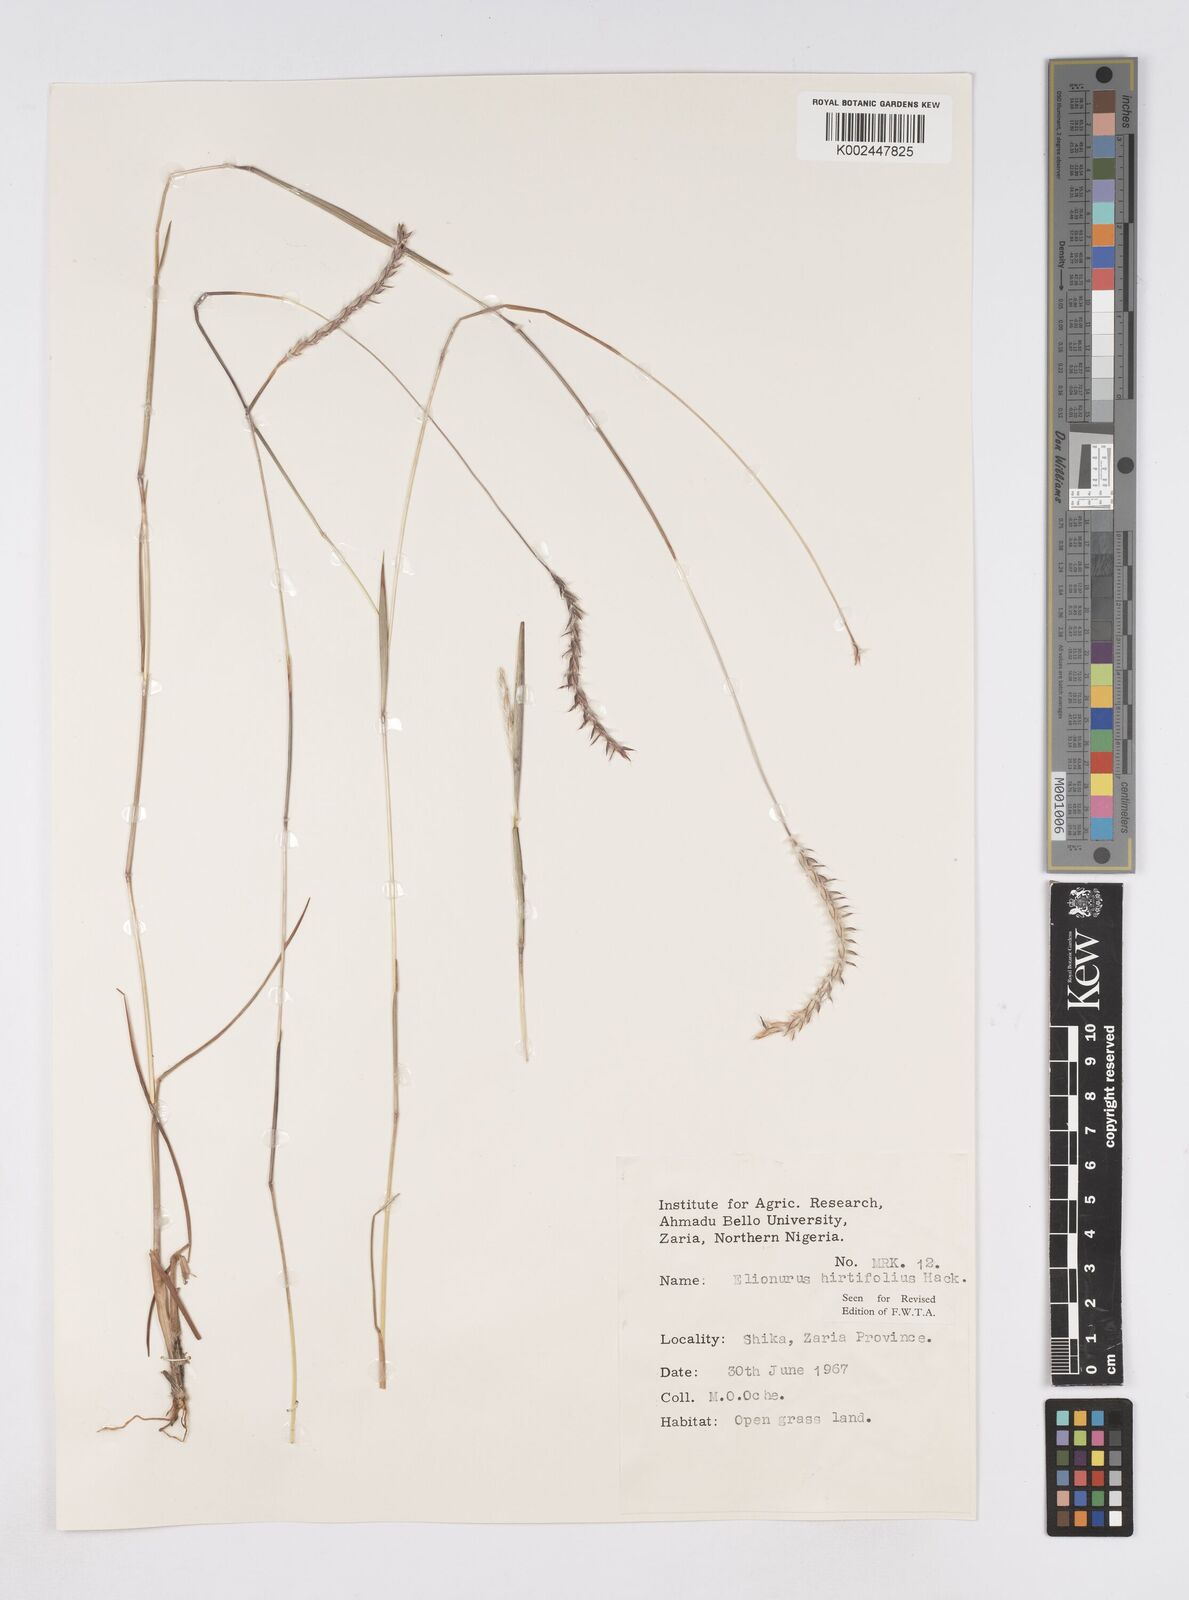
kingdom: Plantae
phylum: Tracheophyta
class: Liliopsida
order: Poales
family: Poaceae
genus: Elionurus
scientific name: Elionurus hirtifolius
